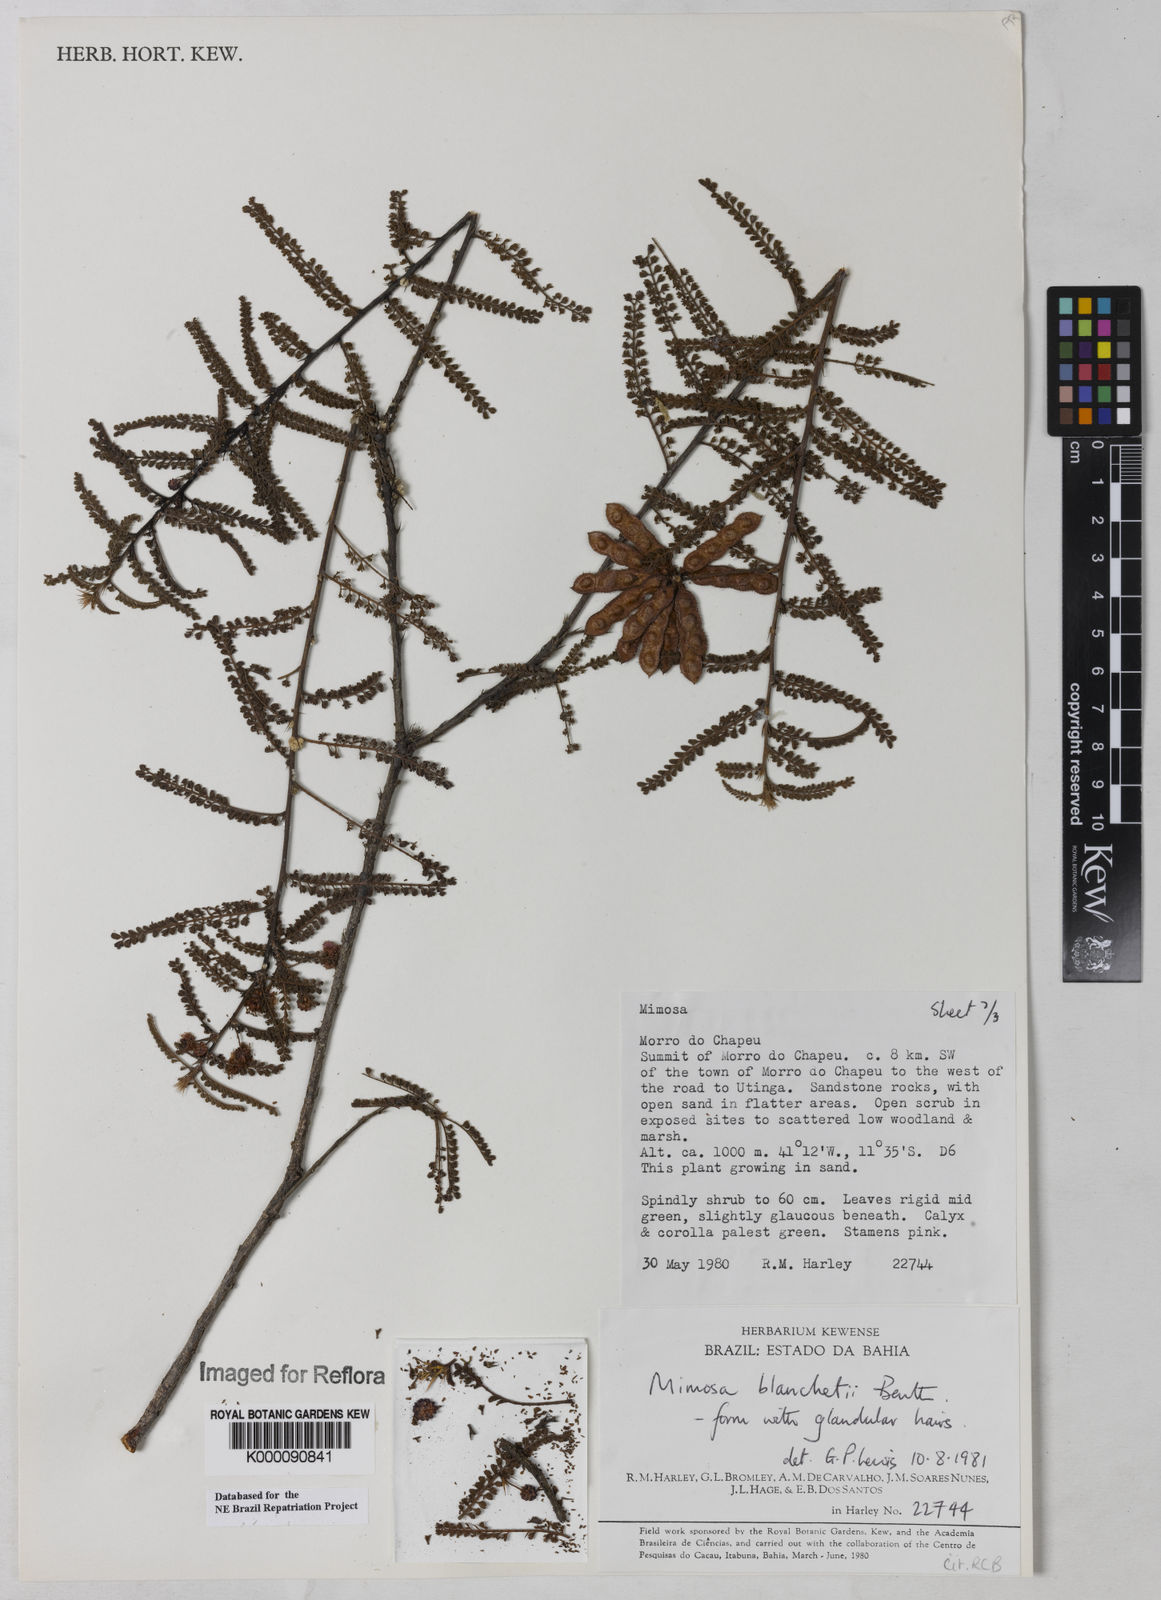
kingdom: Plantae
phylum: Tracheophyta
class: Magnoliopsida
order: Fabales
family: Fabaceae
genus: Mimosa
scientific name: Mimosa blanchetii
